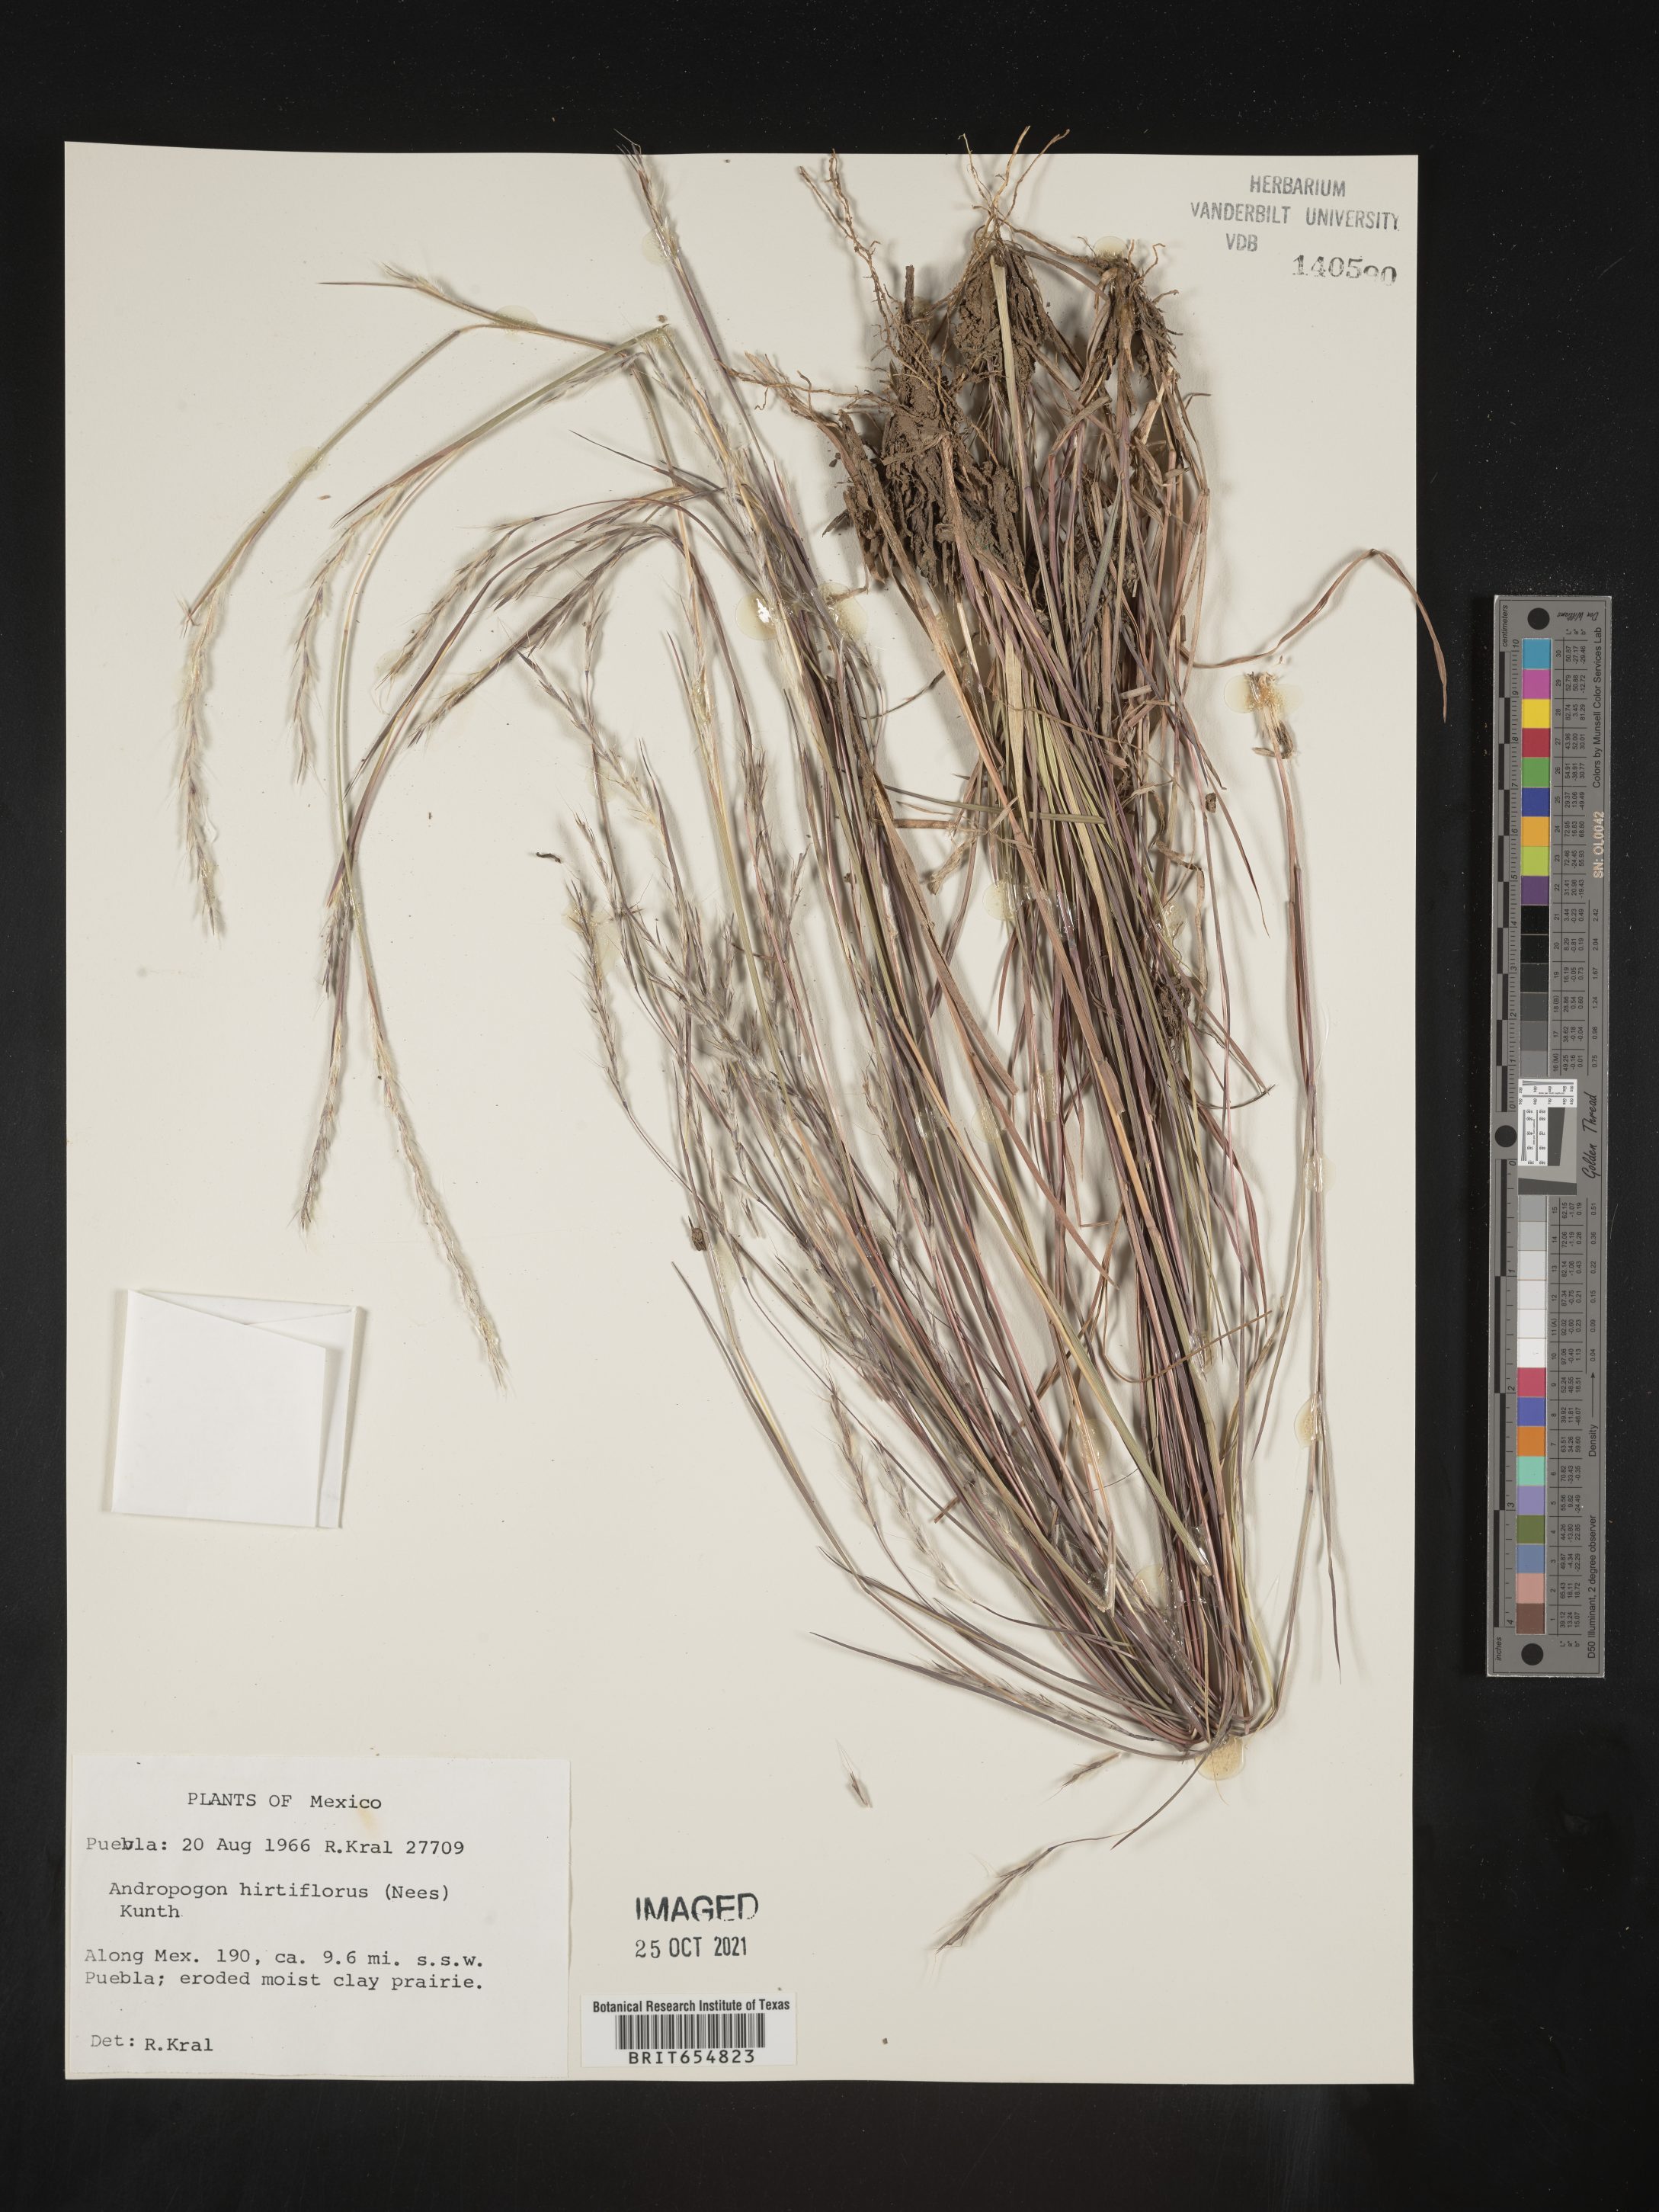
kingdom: Plantae
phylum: Tracheophyta
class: Liliopsida
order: Poales
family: Poaceae
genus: Andropogon
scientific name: Andropogon
